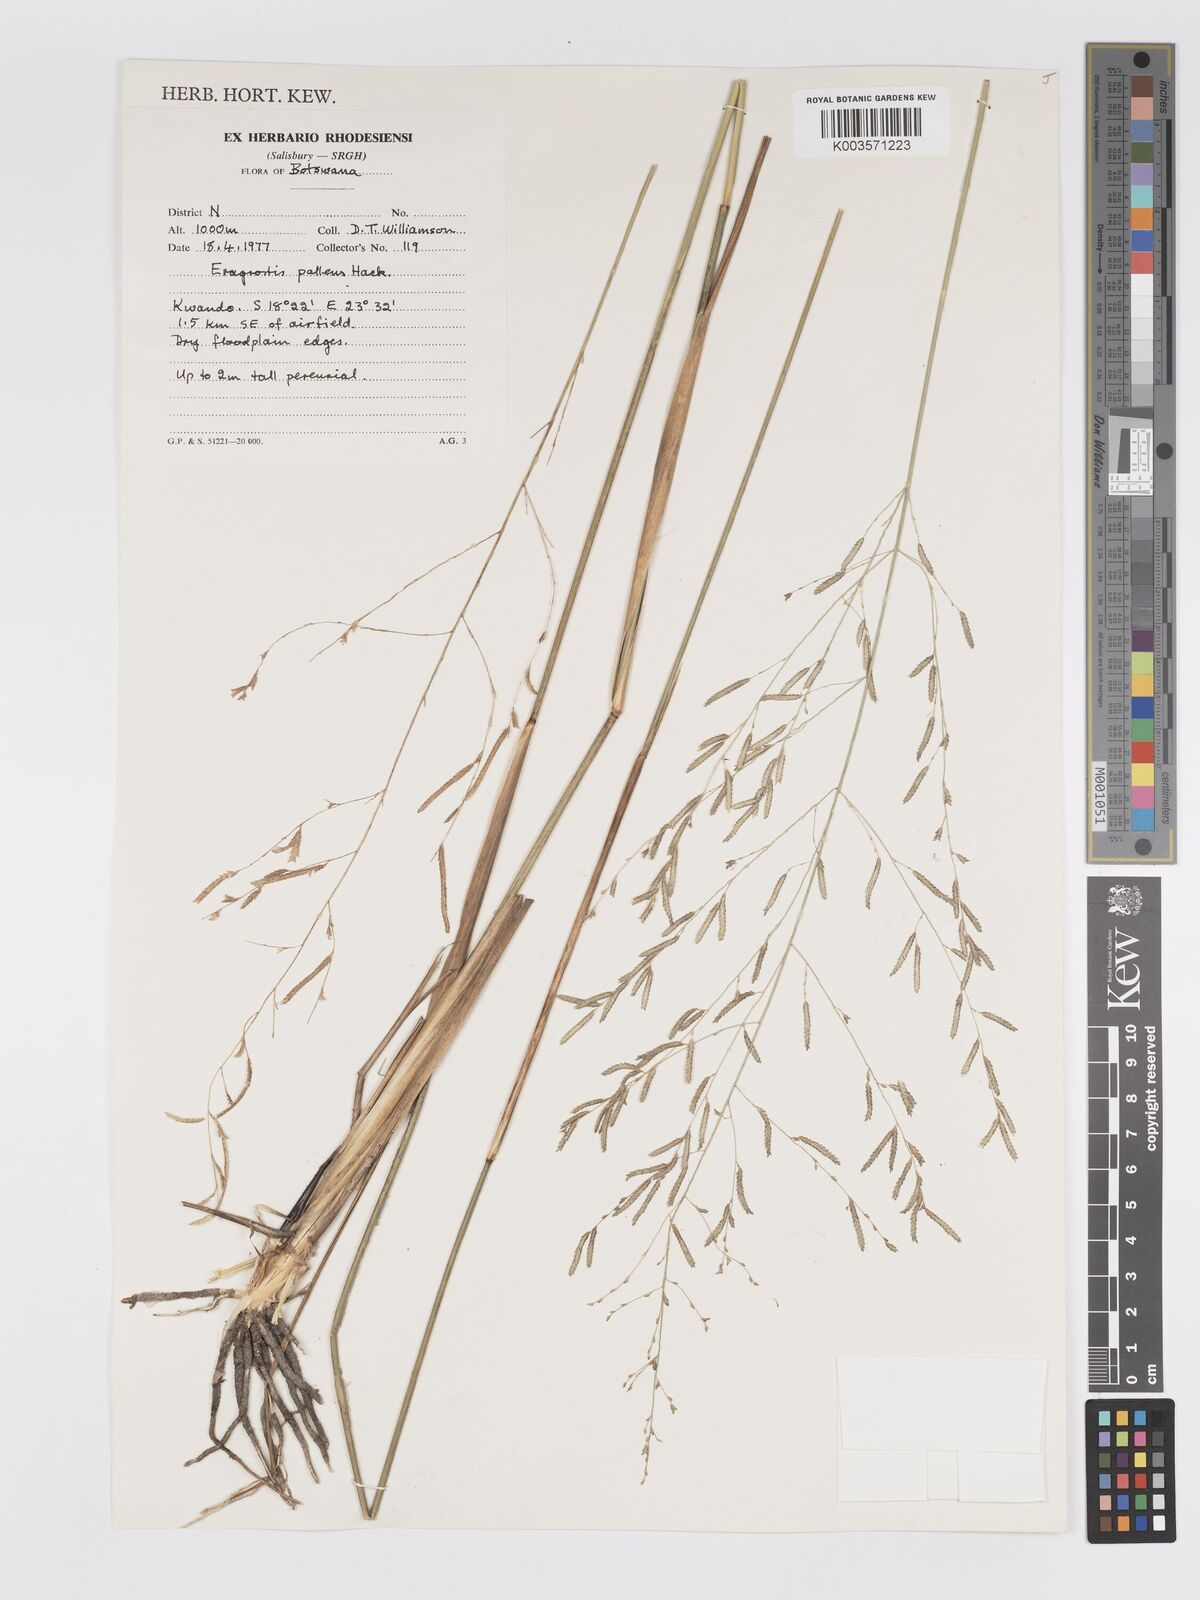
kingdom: Plantae
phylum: Tracheophyta
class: Liliopsida
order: Poales
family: Poaceae
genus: Eragrostis
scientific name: Eragrostis pallens
